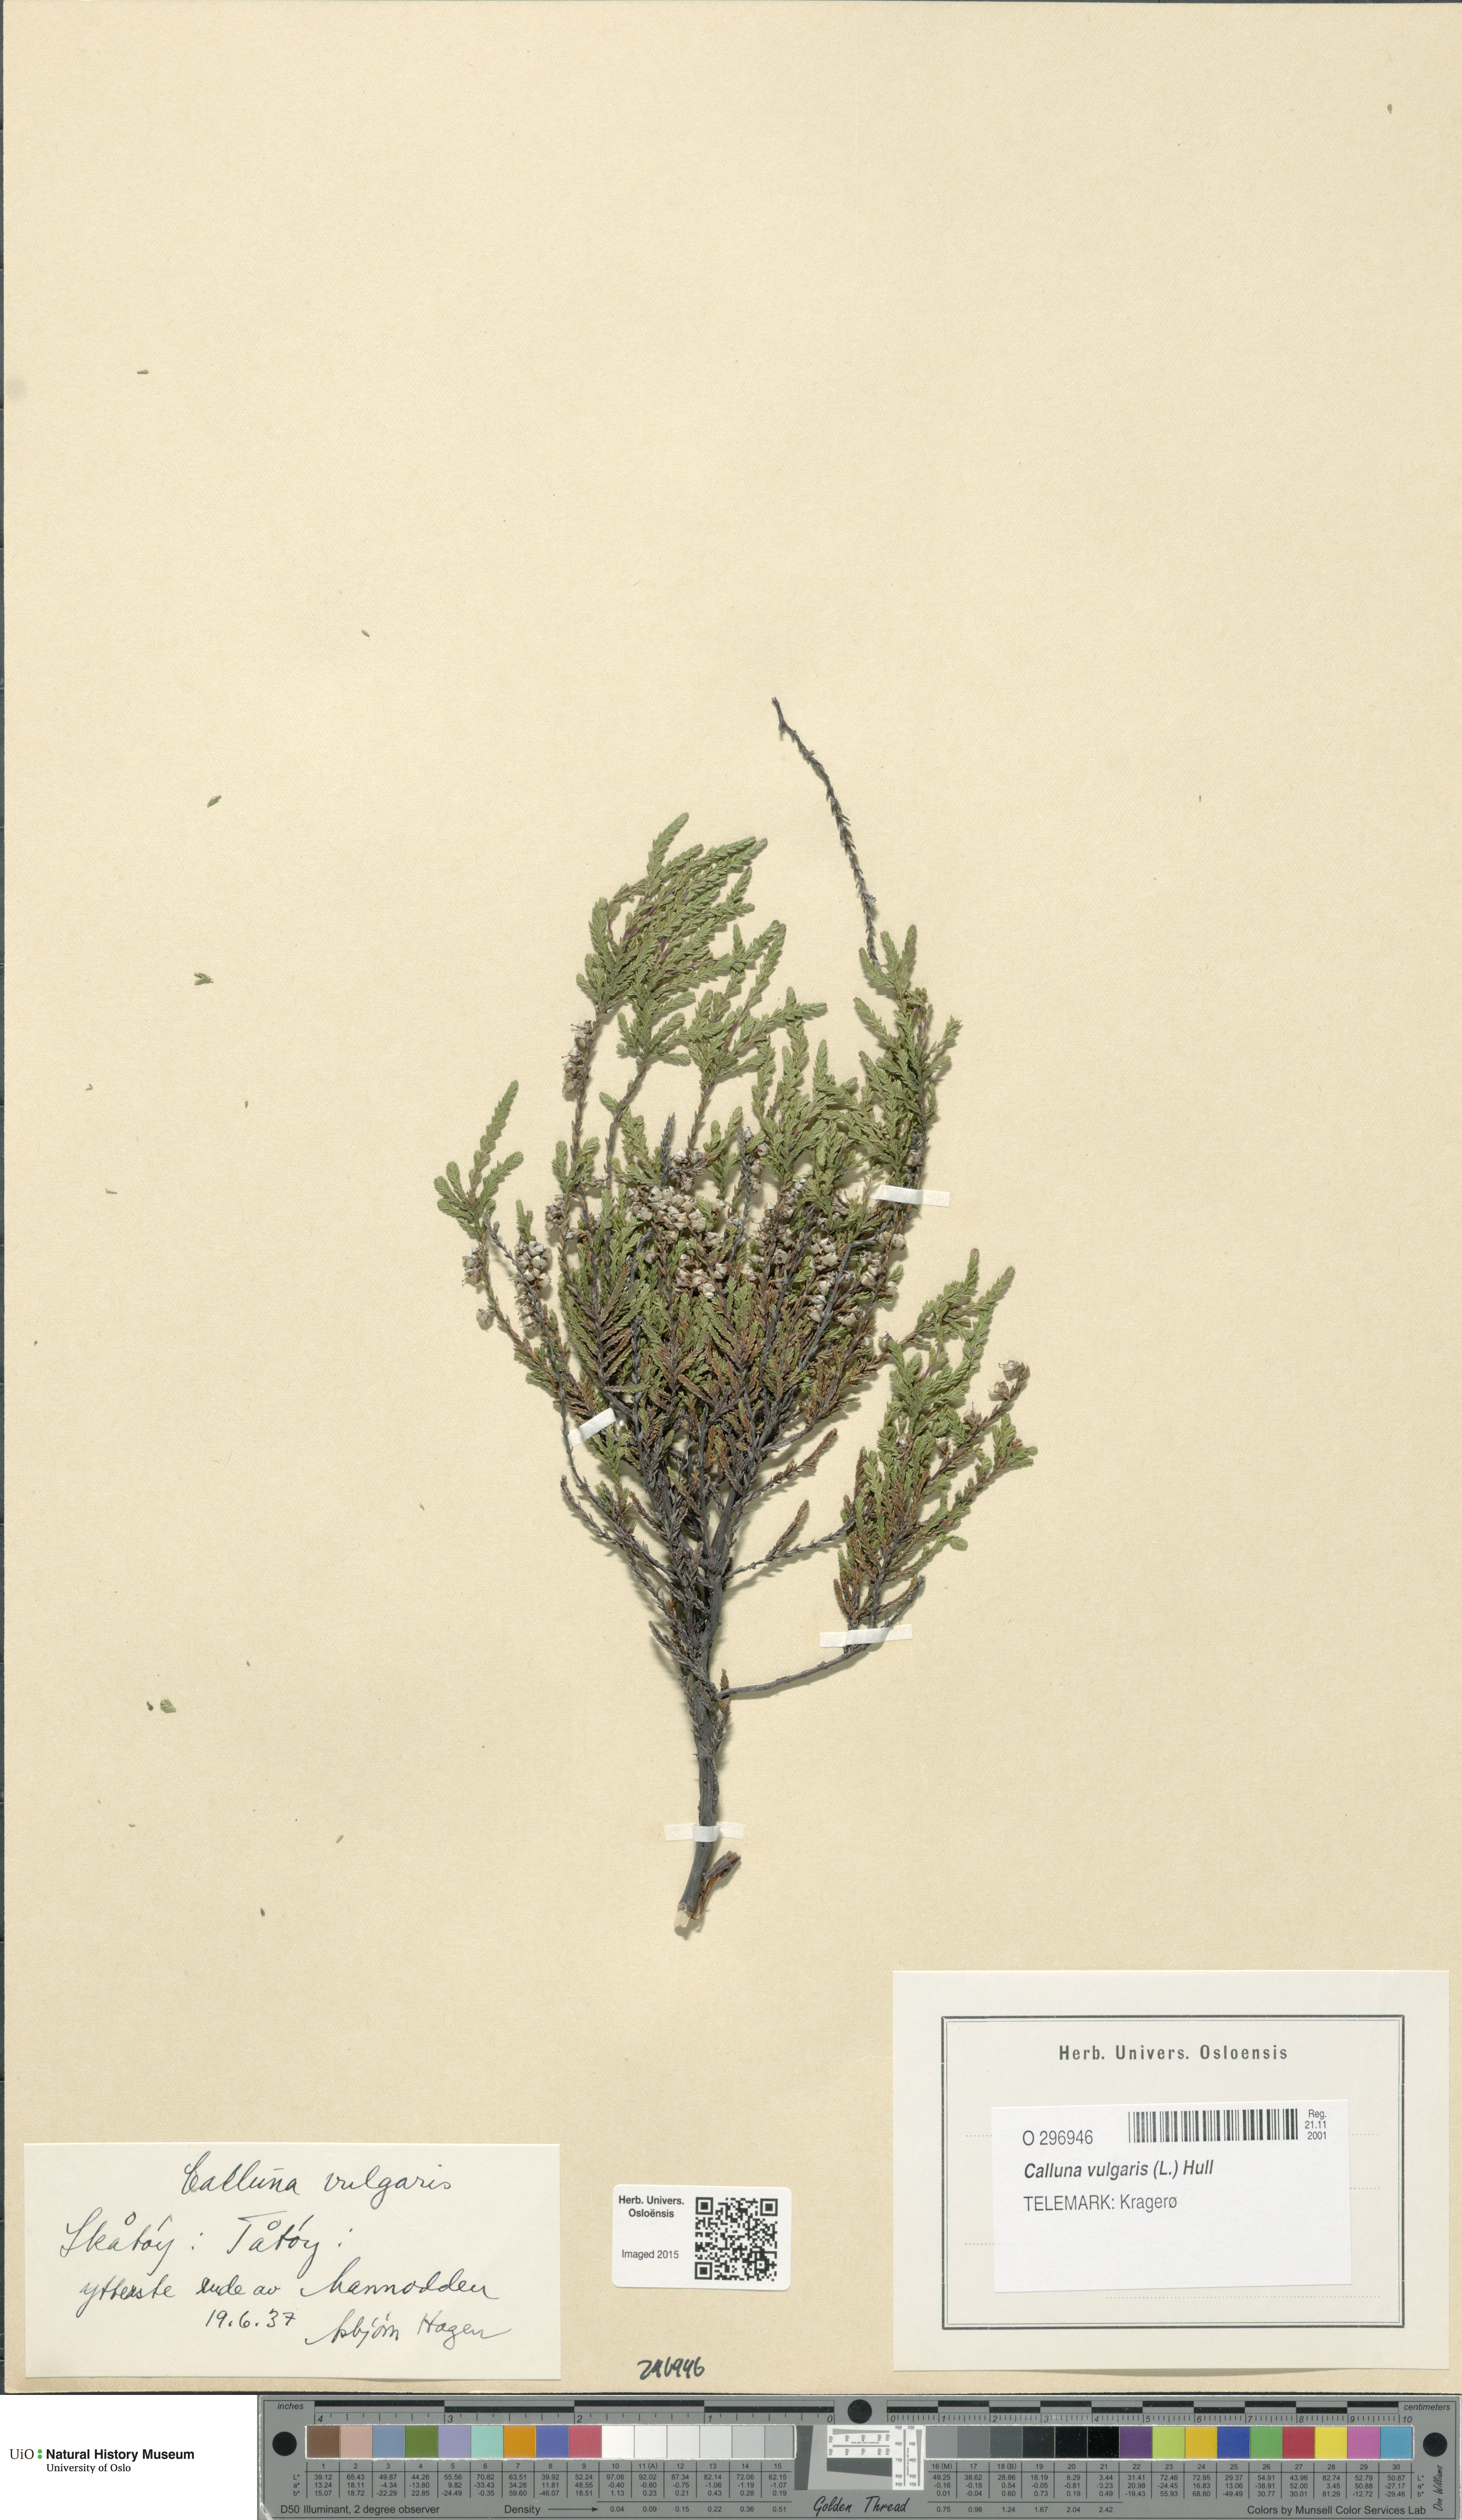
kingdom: Plantae
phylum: Tracheophyta
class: Magnoliopsida
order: Ericales
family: Ericaceae
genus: Calluna
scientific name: Calluna vulgaris
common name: Heather
